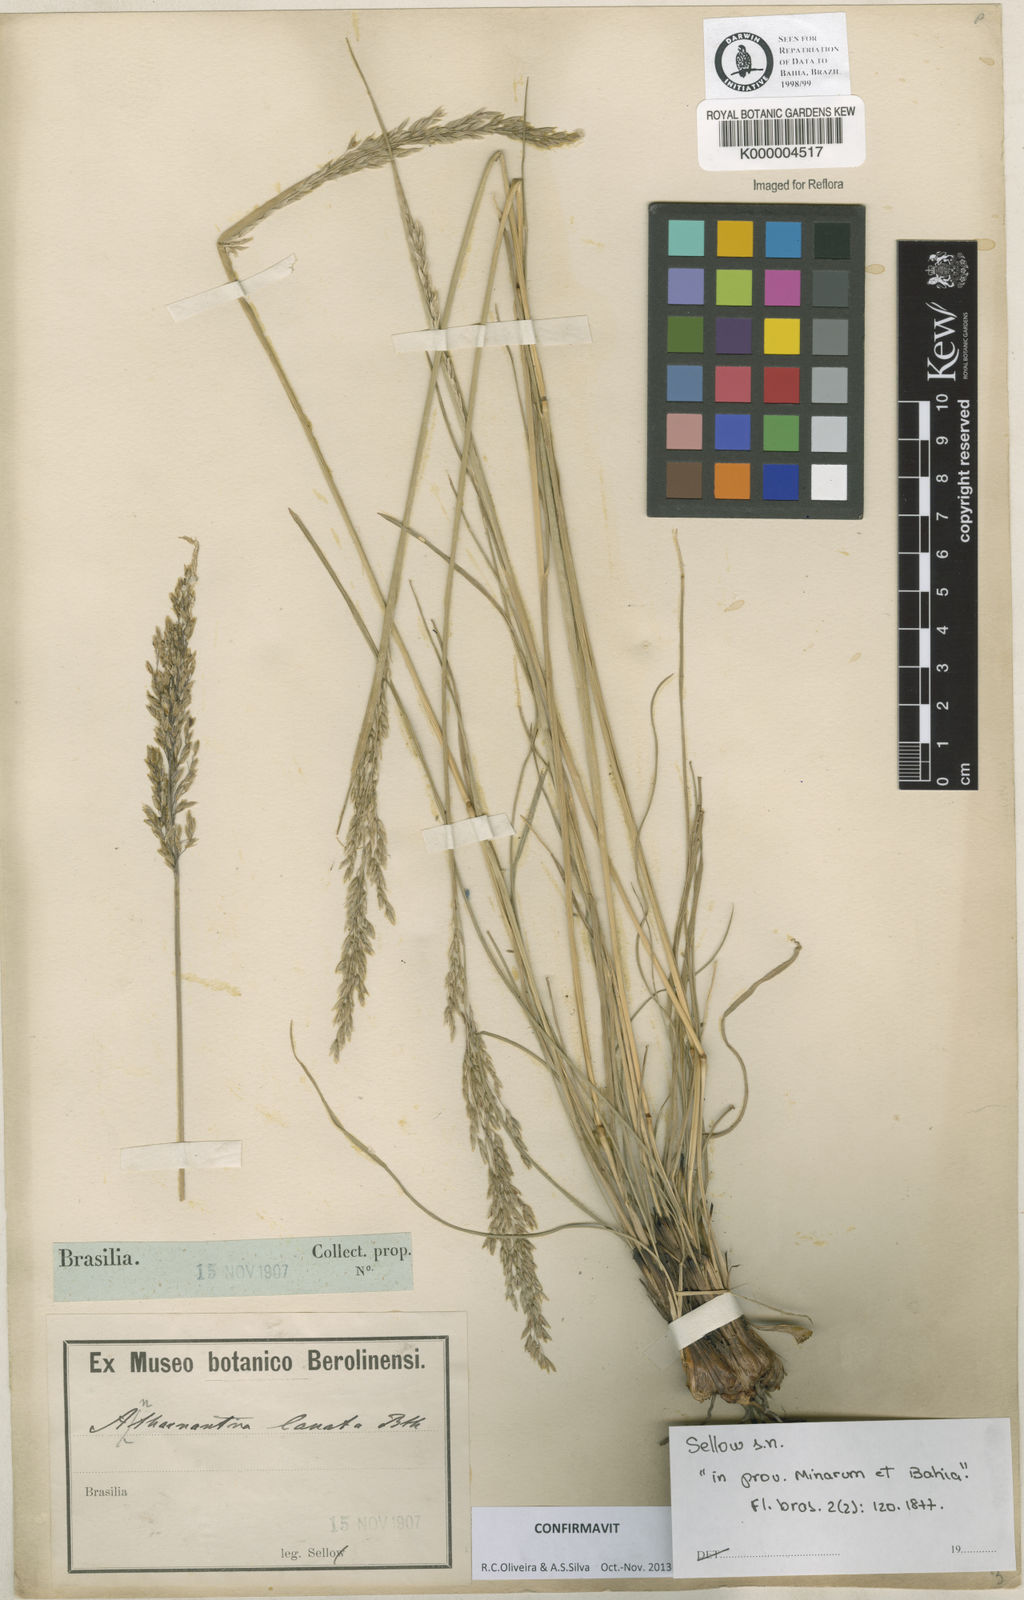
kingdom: Plantae
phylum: Tracheophyta
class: Liliopsida
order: Poales
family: Poaceae
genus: Anthenantia
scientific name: Anthenantia lanata
